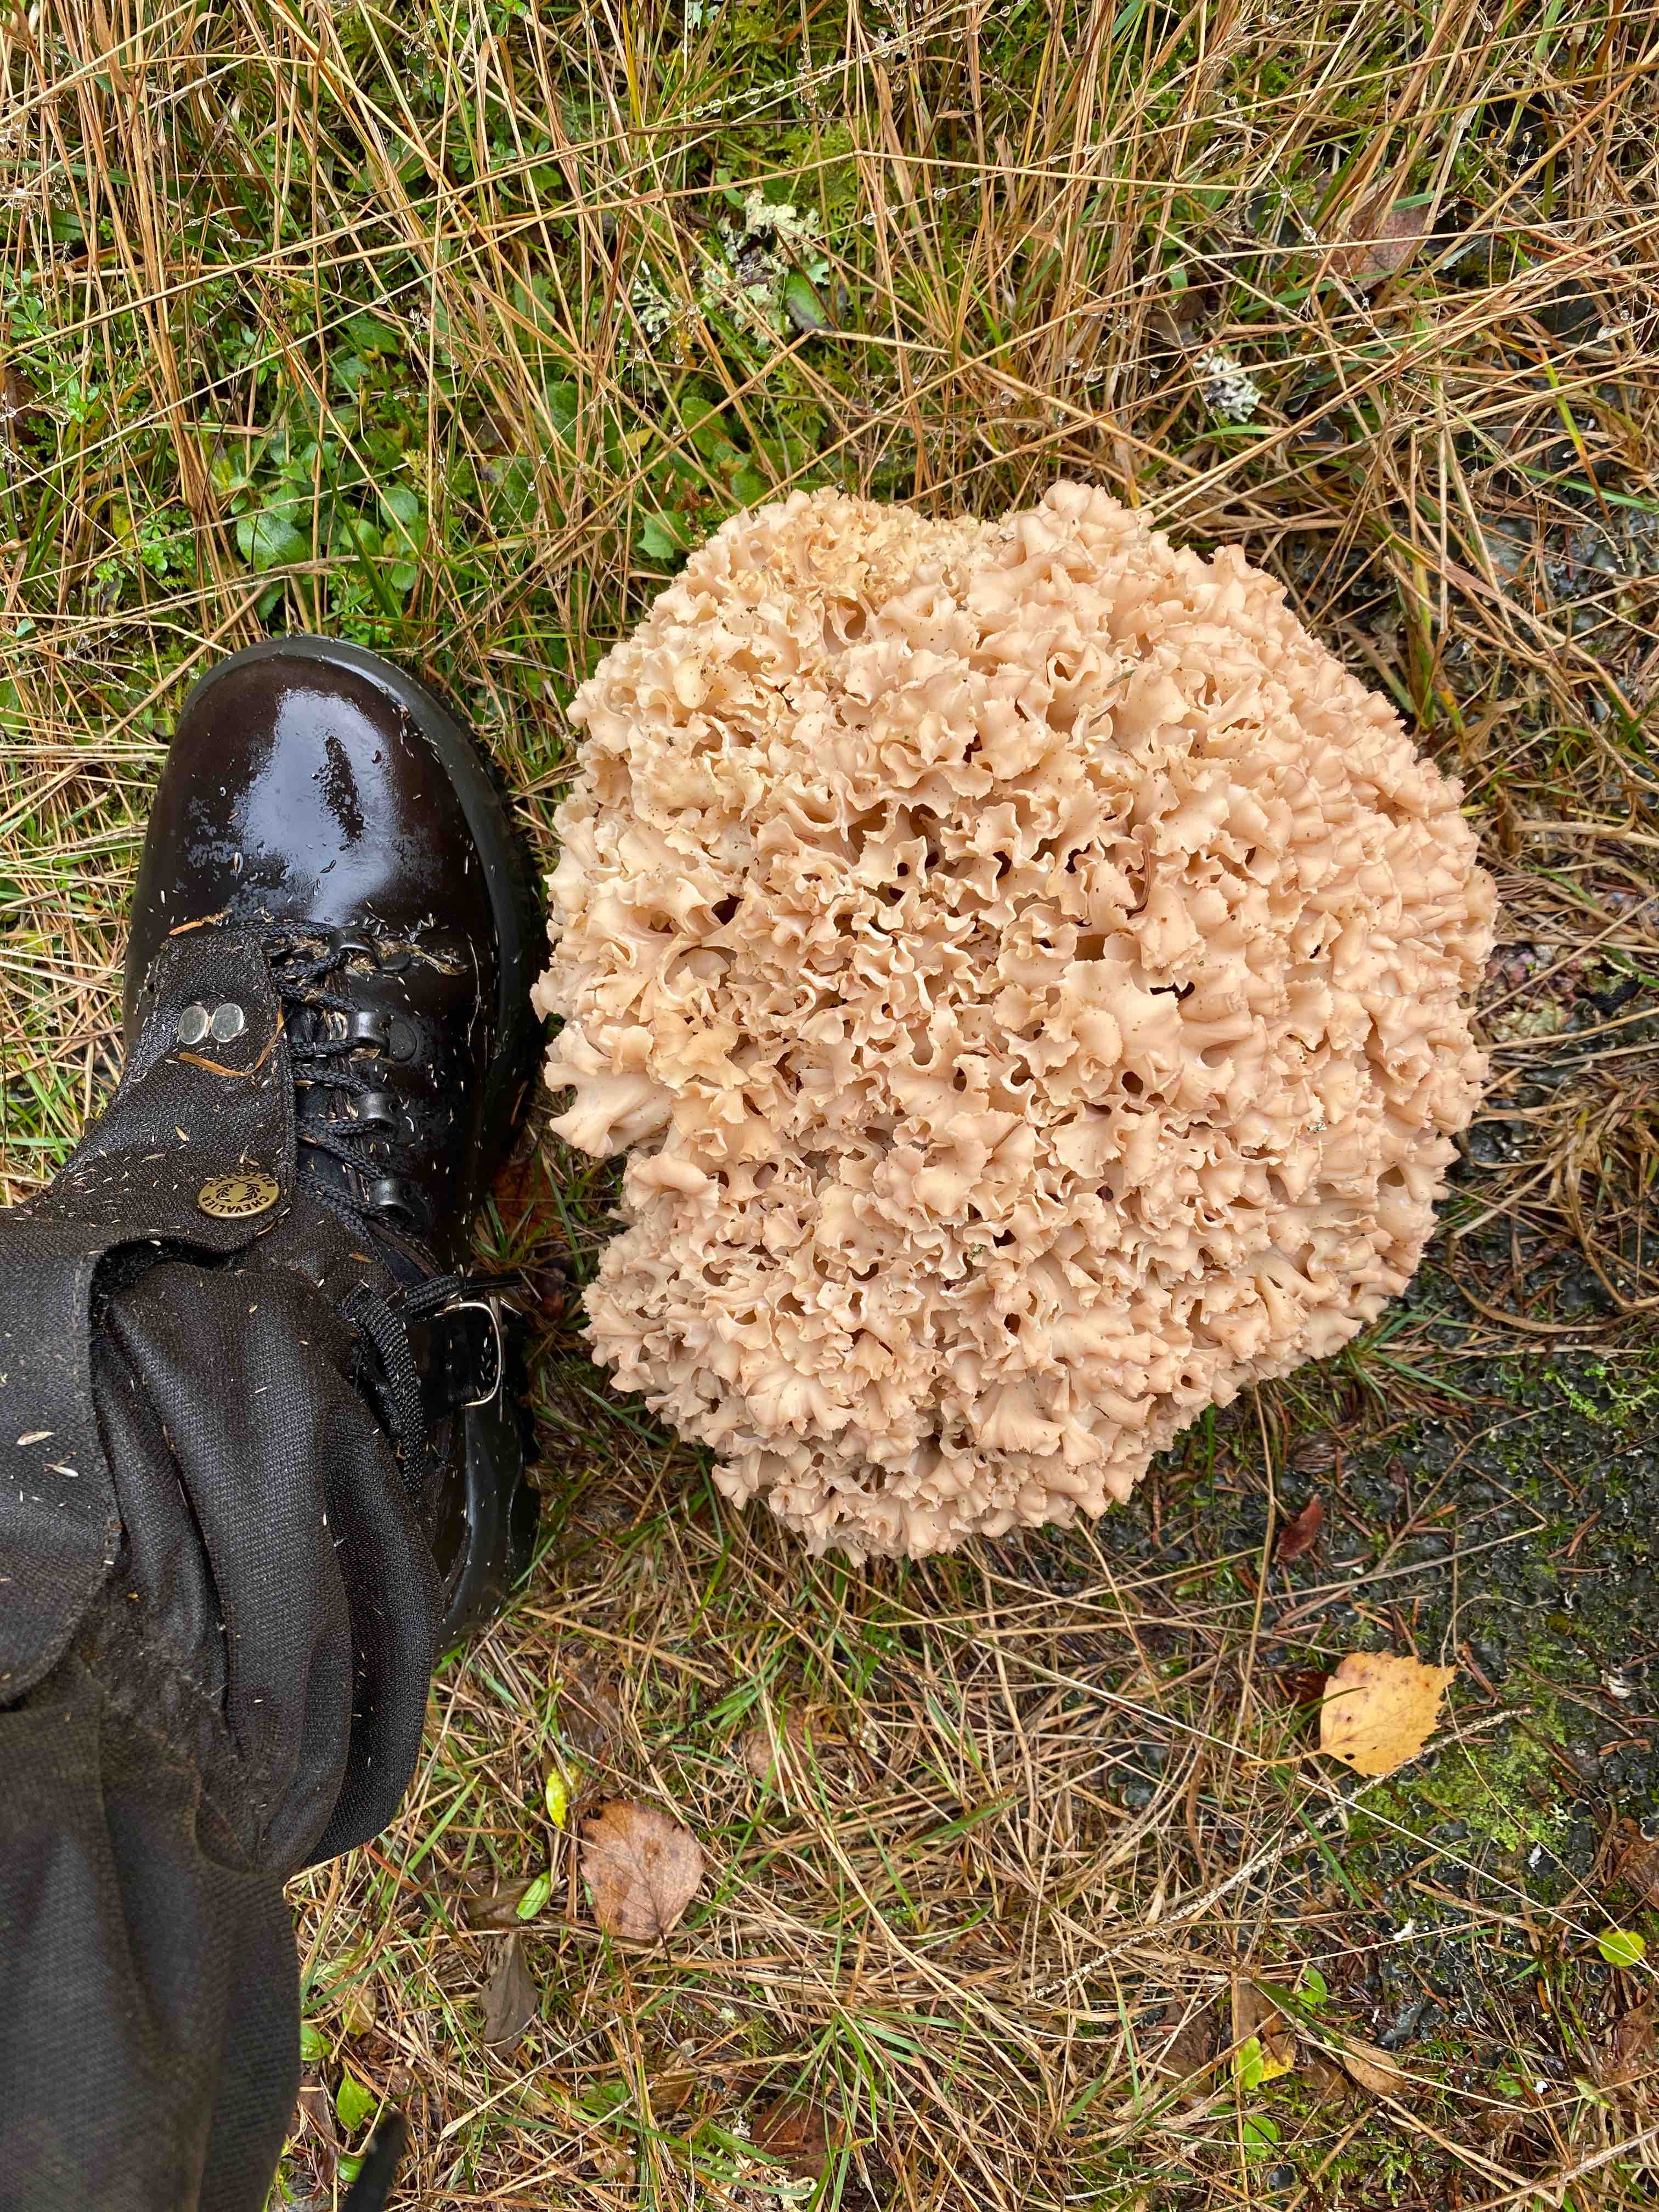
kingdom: Fungi
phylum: Basidiomycota
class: Agaricomycetes
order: Polyporales
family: Sparassidaceae
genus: Sparassis
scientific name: Sparassis crispa
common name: kruset blomkålssvamp
